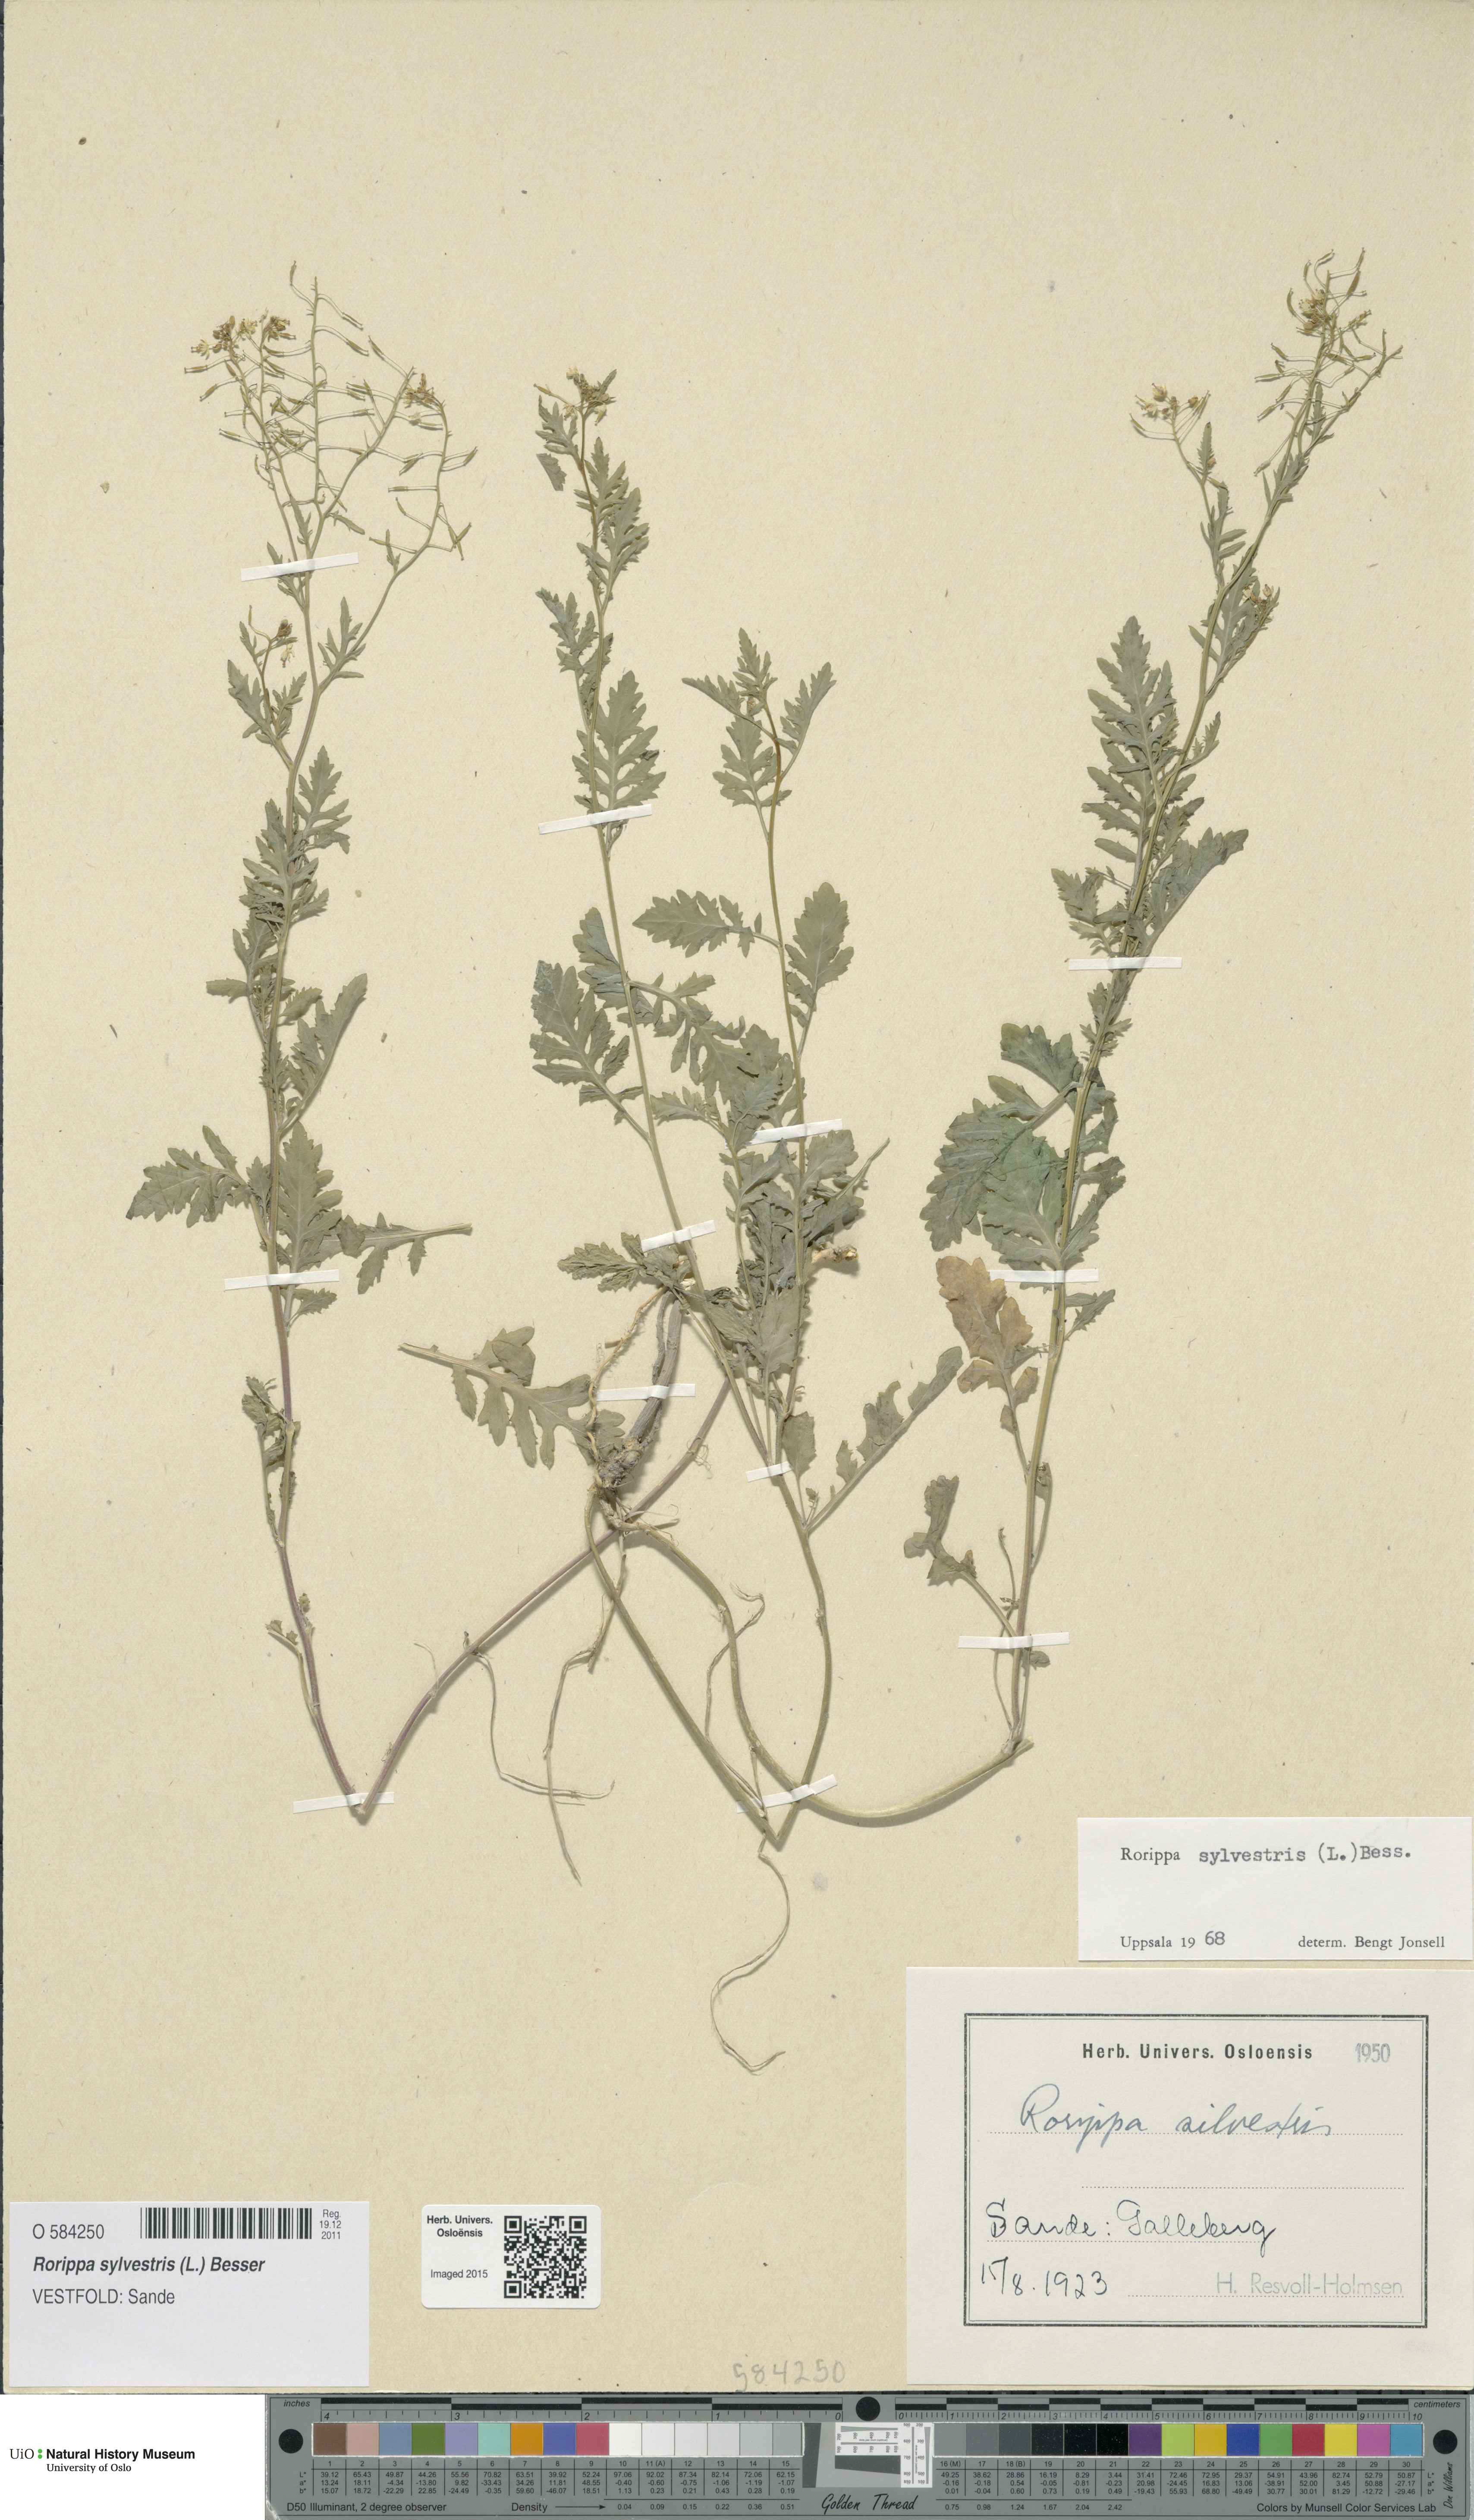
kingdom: Plantae
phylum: Tracheophyta
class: Magnoliopsida
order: Brassicales
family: Brassicaceae
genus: Rorippa
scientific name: Rorippa sylvestris
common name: Creeping yellowcress
